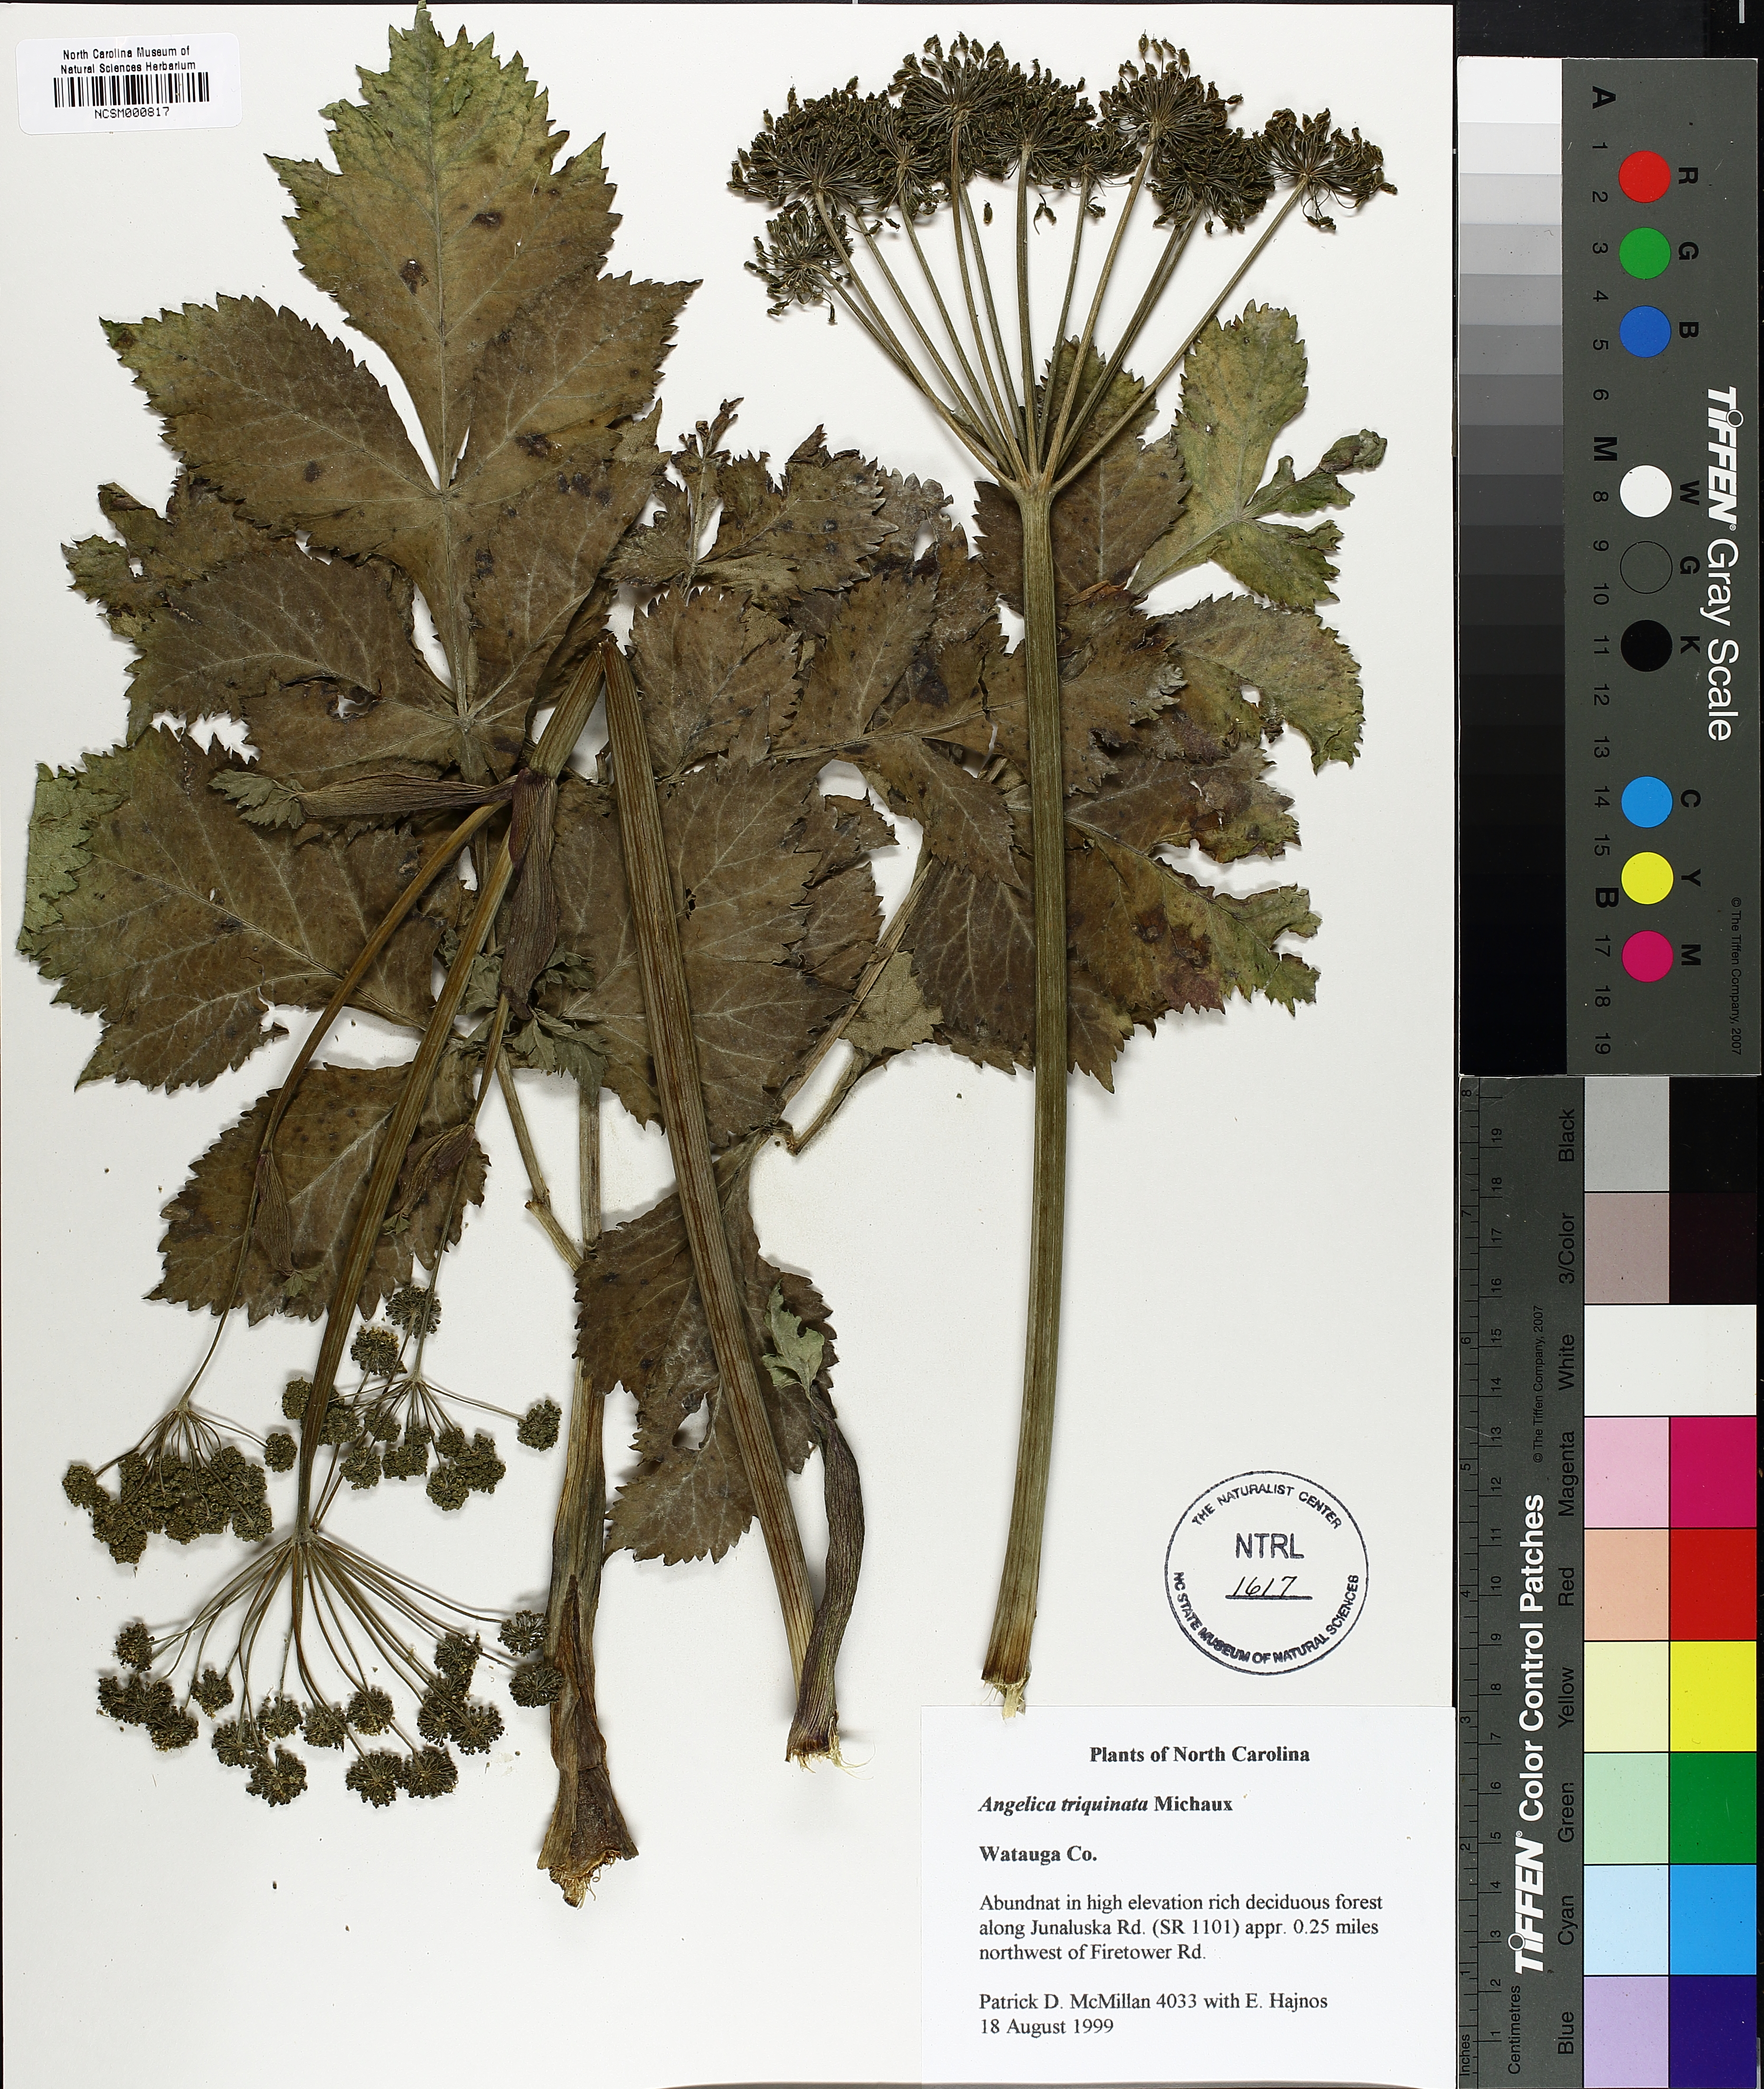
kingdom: Plantae
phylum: Tracheophyta
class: Magnoliopsida
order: Apiales
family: Apiaceae
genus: Angelica
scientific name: Angelica triquinata
